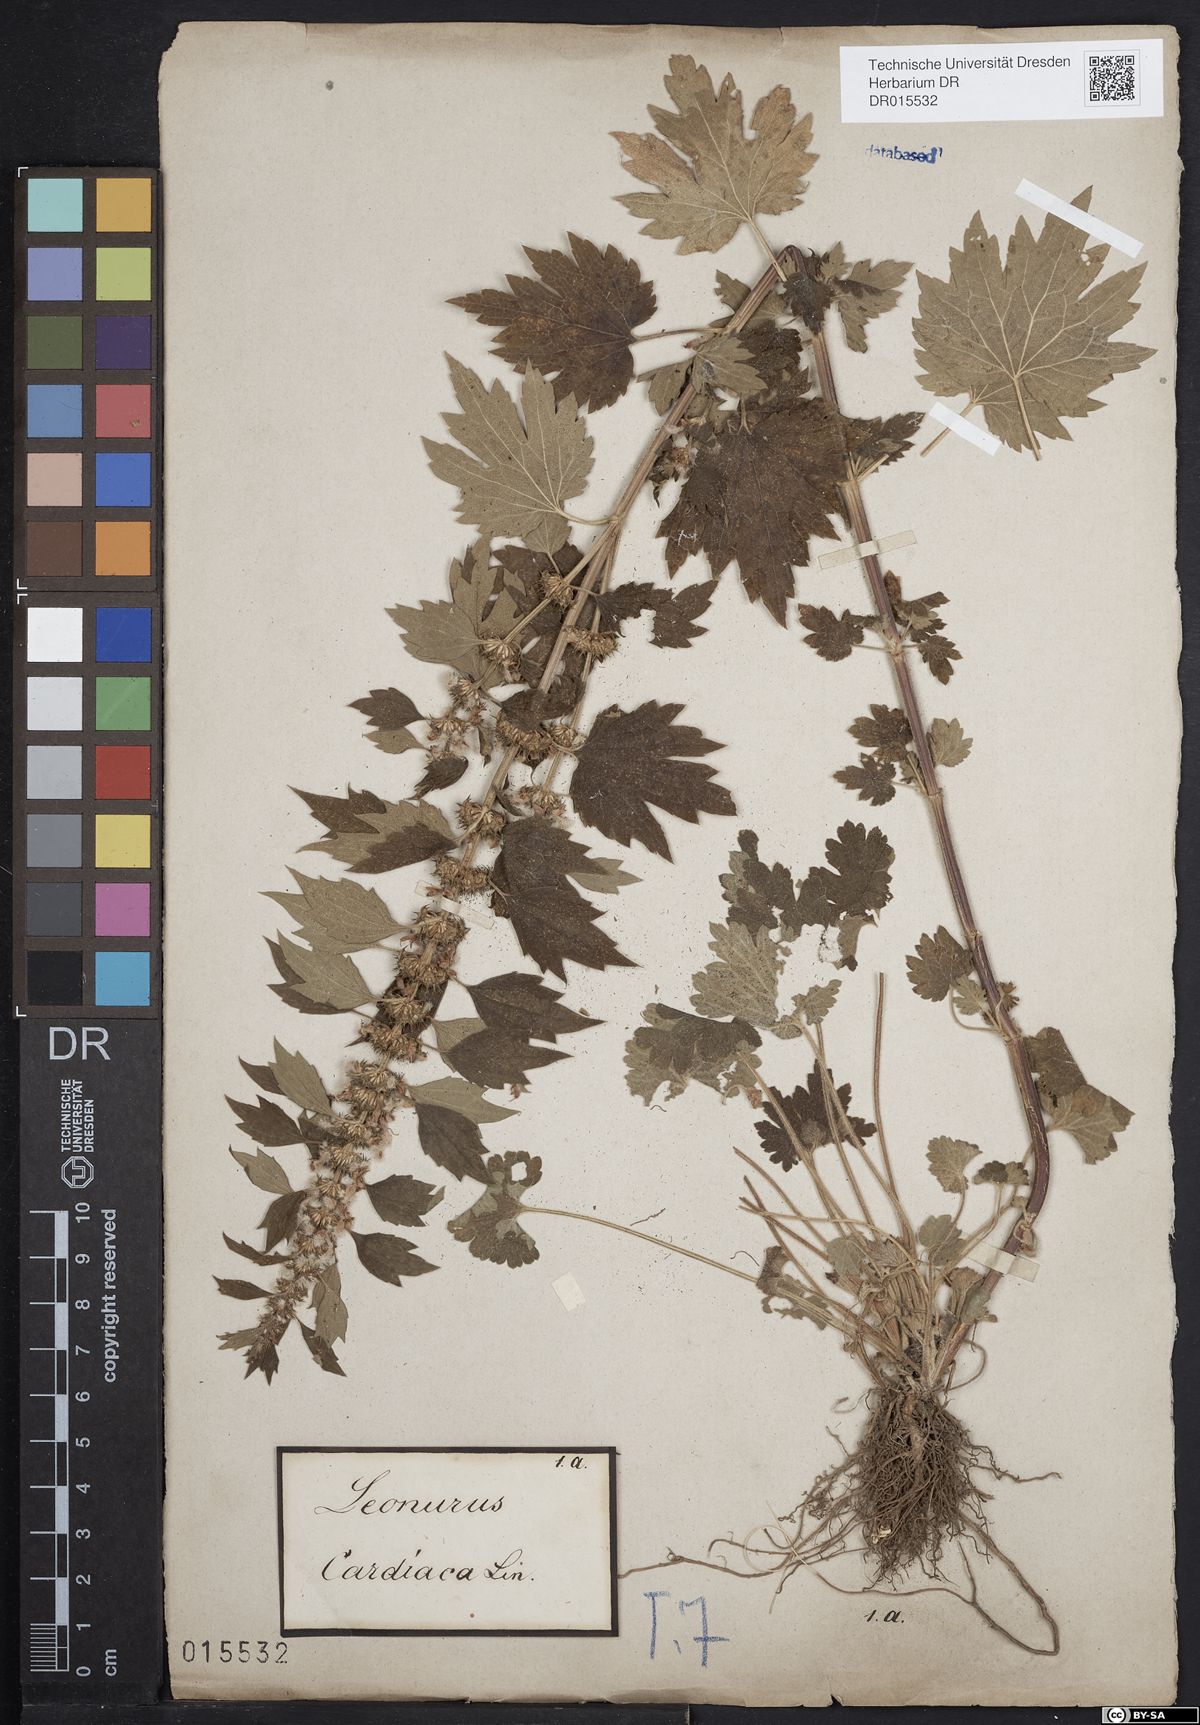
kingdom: Plantae
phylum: Tracheophyta
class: Magnoliopsida
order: Lamiales
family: Lamiaceae
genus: Leonurus
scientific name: Leonurus cardiaca
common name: Motherwort
